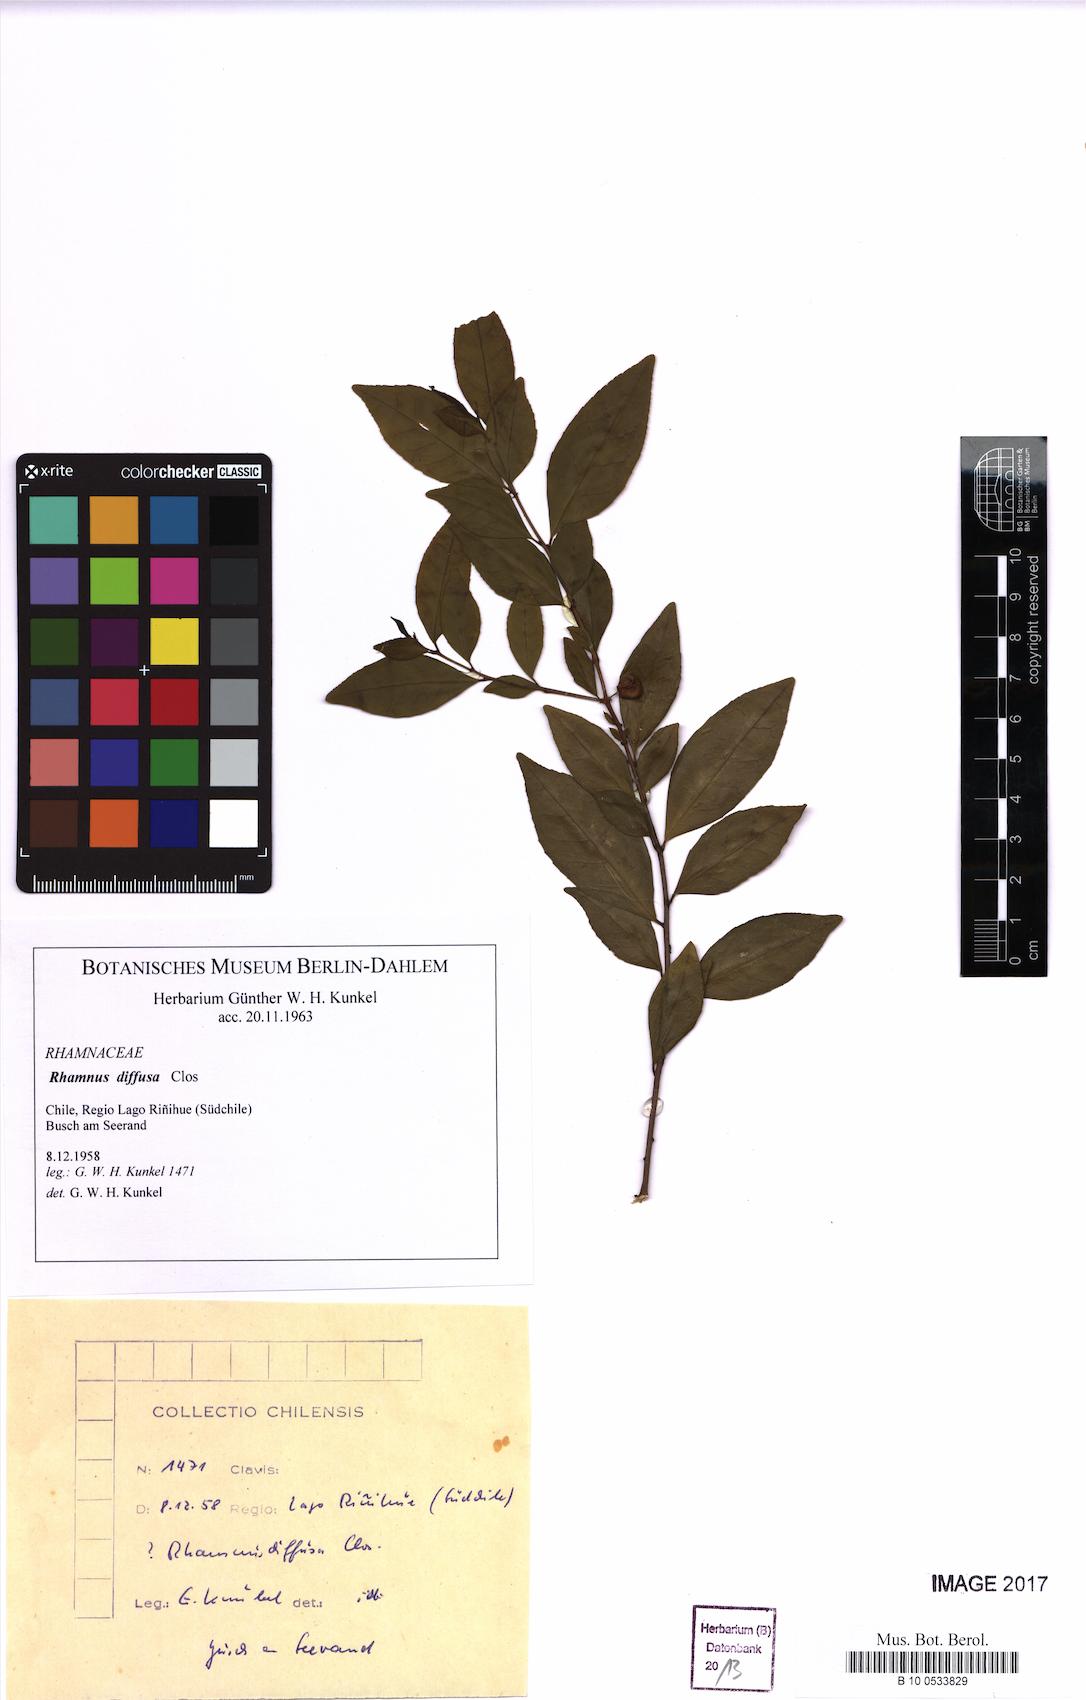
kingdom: Plantae
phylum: Tracheophyta
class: Magnoliopsida
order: Rosales
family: Rhamnaceae
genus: Condalia
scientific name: Condalia maytenoides
